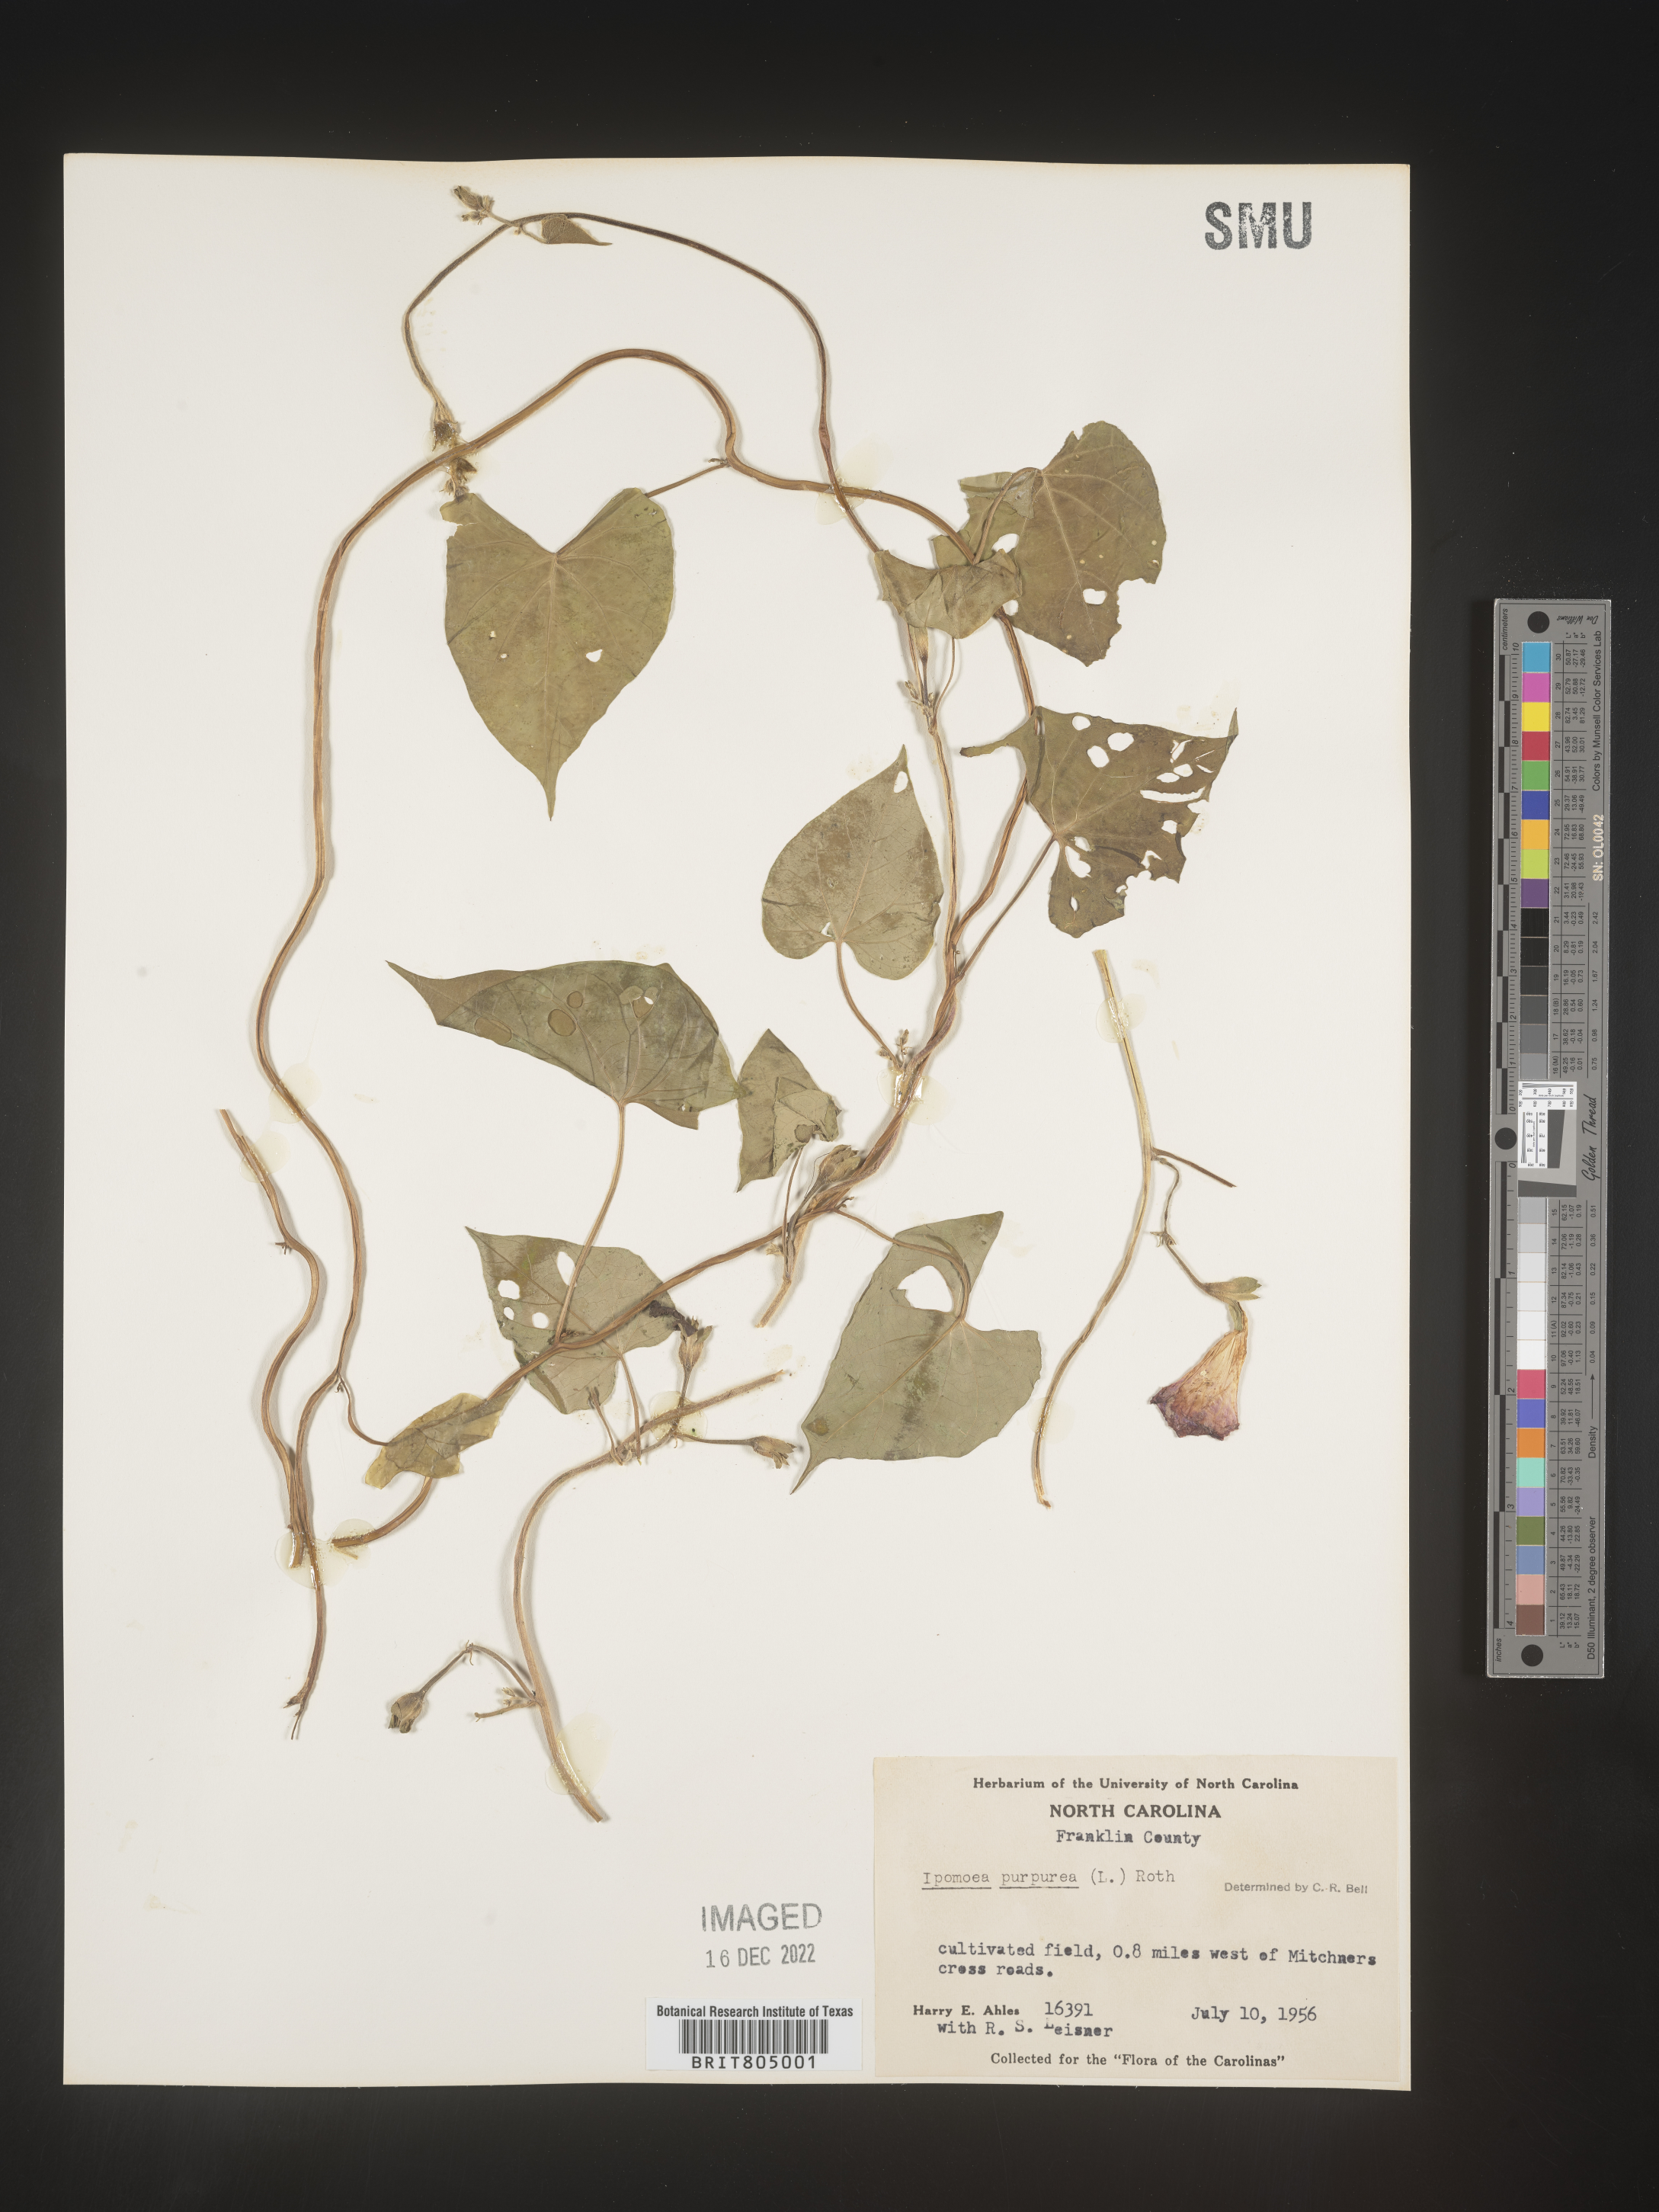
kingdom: Plantae
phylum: Tracheophyta
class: Magnoliopsida
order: Solanales
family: Convolvulaceae
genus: Ipomoea
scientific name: Ipomoea purpurea
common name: Common morning-glory
